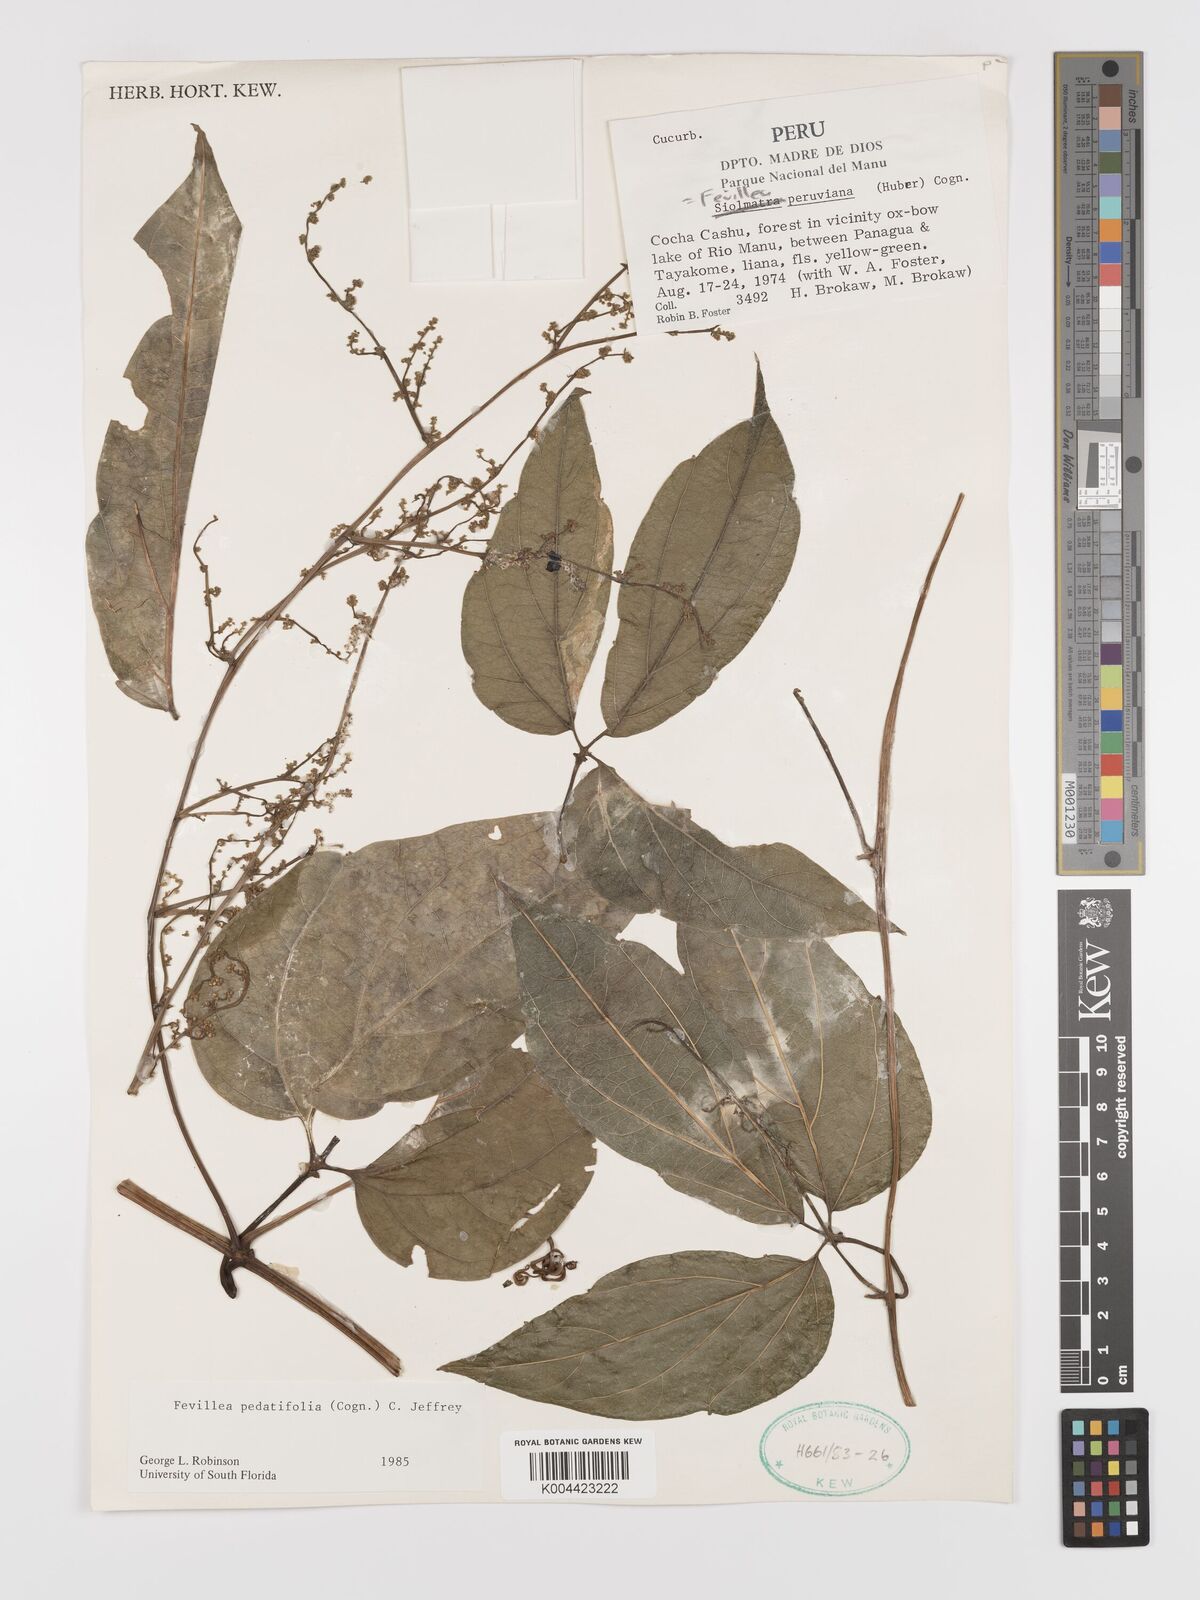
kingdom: Plantae
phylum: Tracheophyta
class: Magnoliopsida
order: Cucurbitales
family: Cucurbitaceae
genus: Fevillea
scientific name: Fevillea pedatifolia
